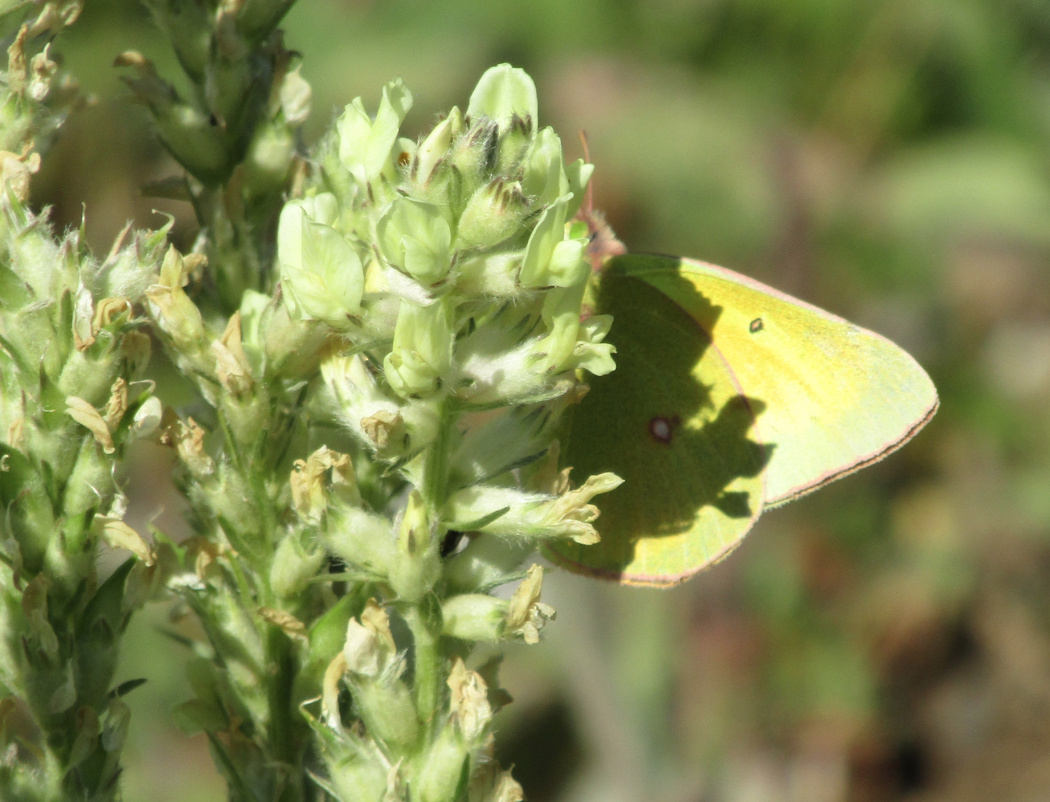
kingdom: Animalia
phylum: Arthropoda
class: Insecta
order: Lepidoptera
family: Pieridae
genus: Colias
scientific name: Colias christina
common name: Christina Sulphur
